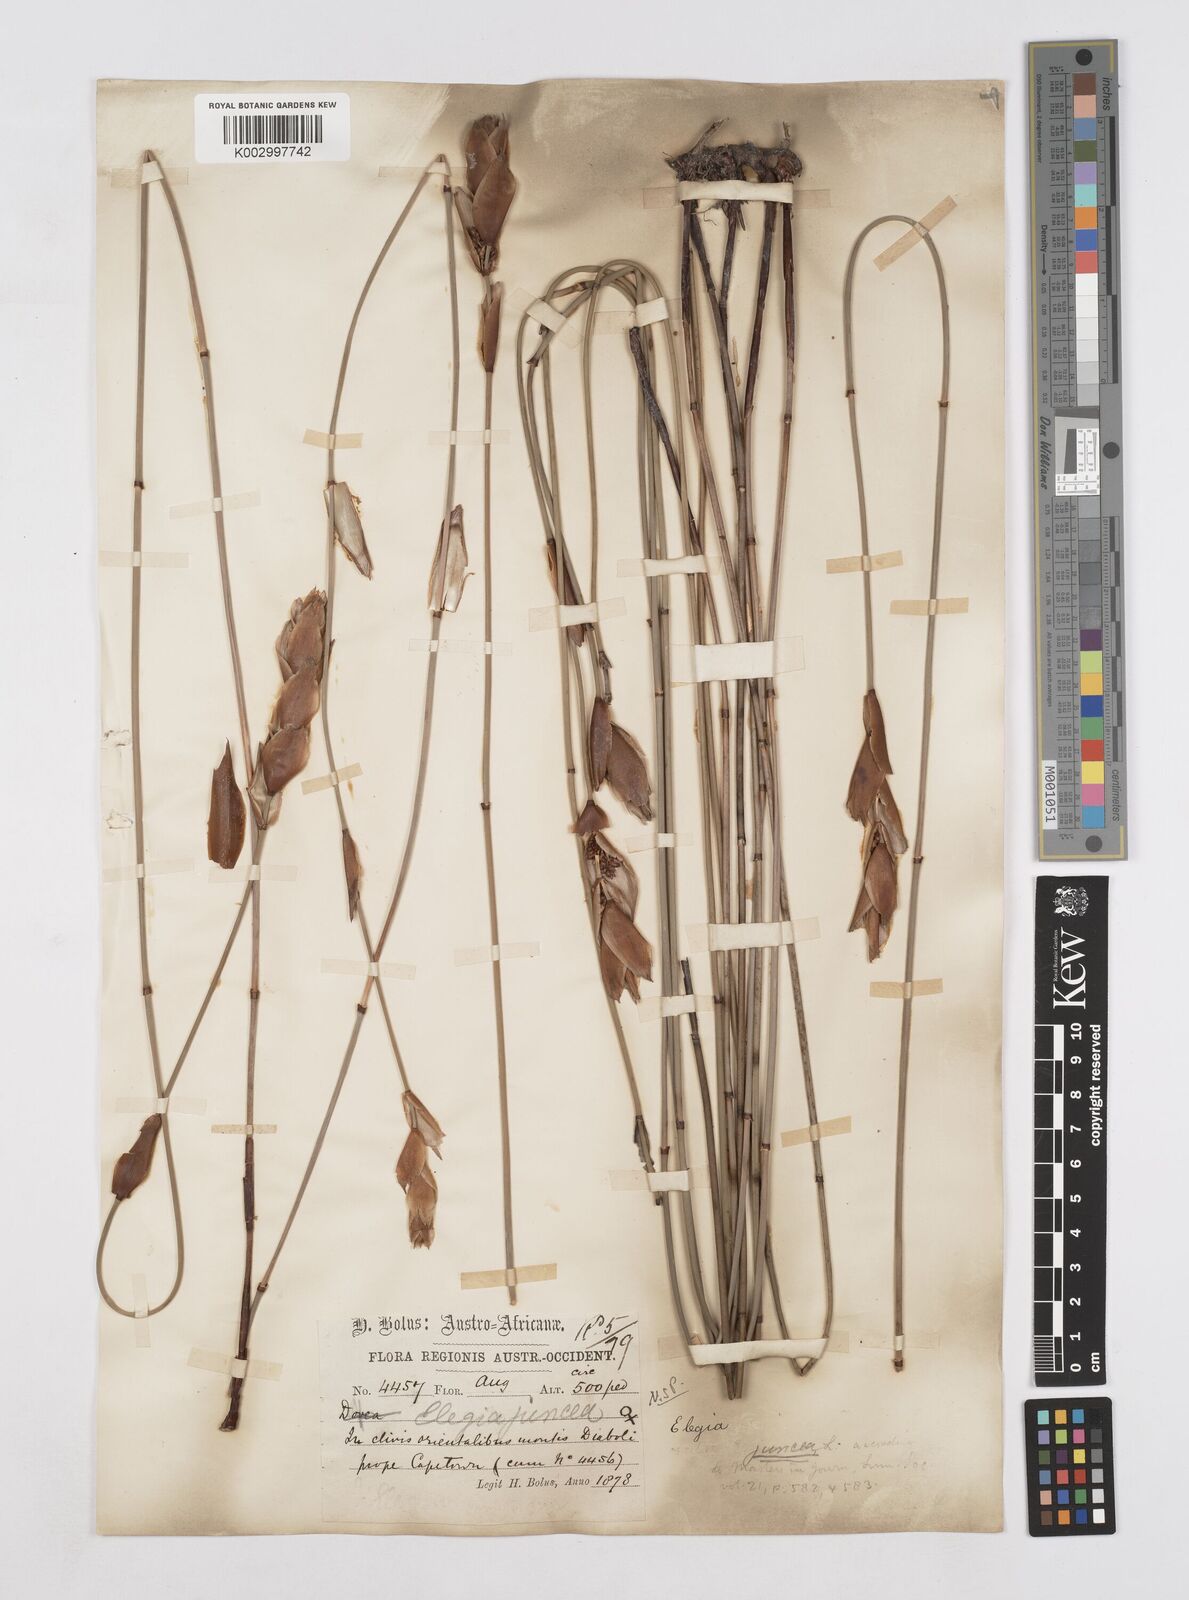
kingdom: Plantae
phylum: Tracheophyta
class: Liliopsida
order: Poales
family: Restionaceae
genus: Elegia
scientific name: Elegia juncea
